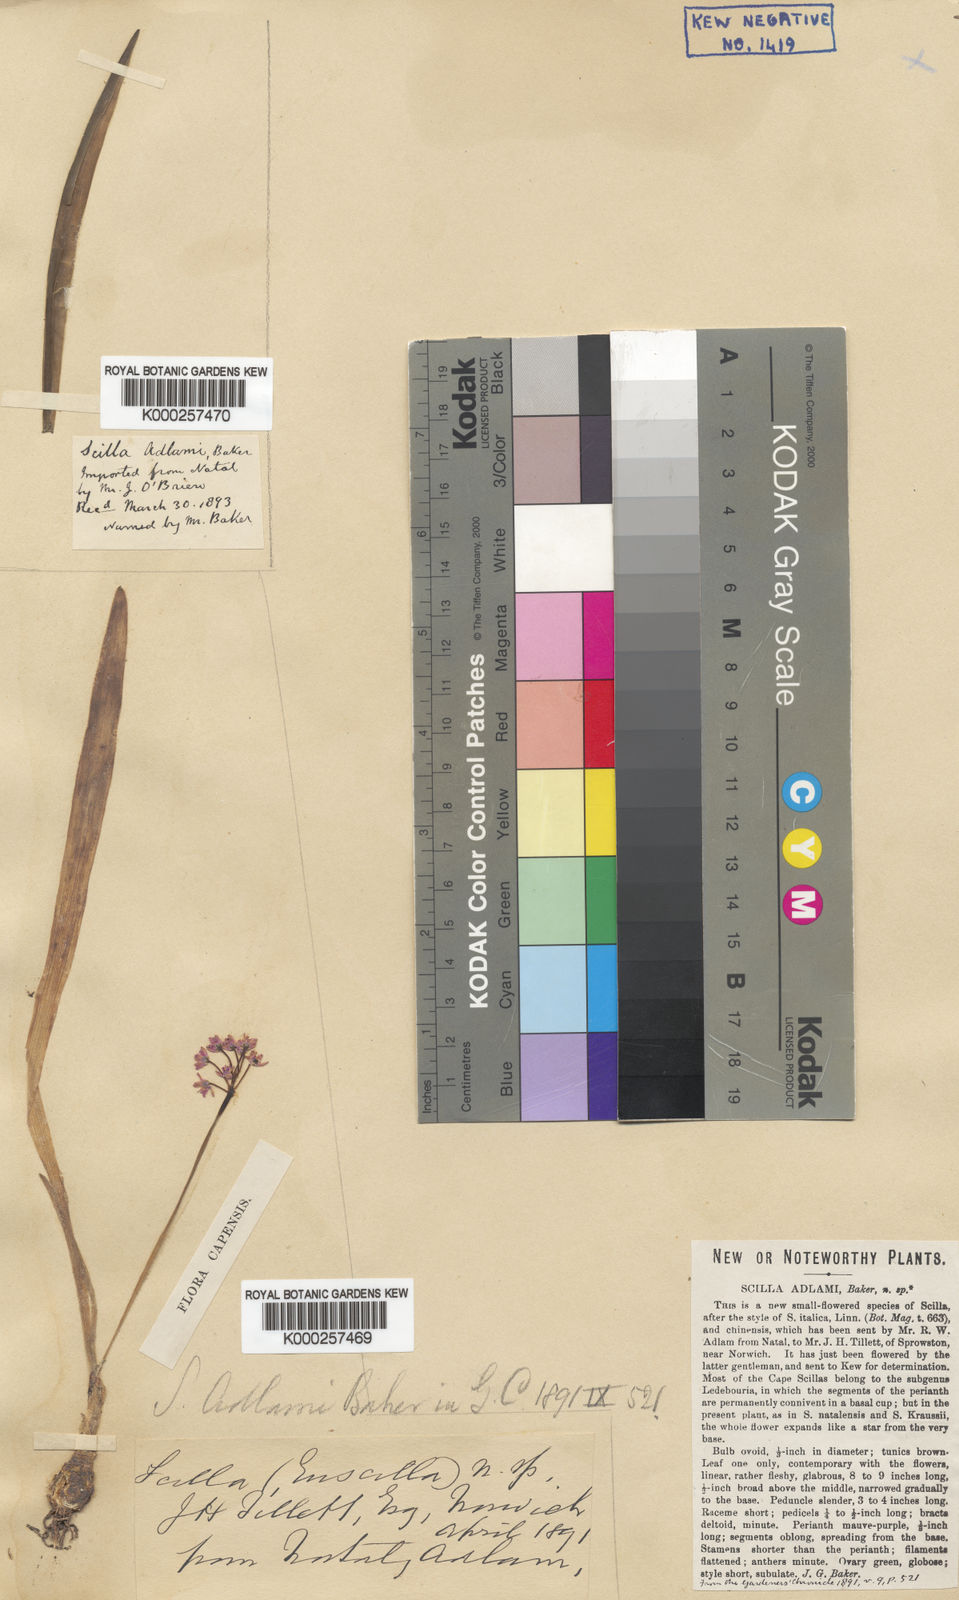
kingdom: Plantae
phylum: Tracheophyta
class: Liliopsida
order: Asparagales
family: Asparagaceae
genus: Ledebouria
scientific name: Ledebouria cooperi
